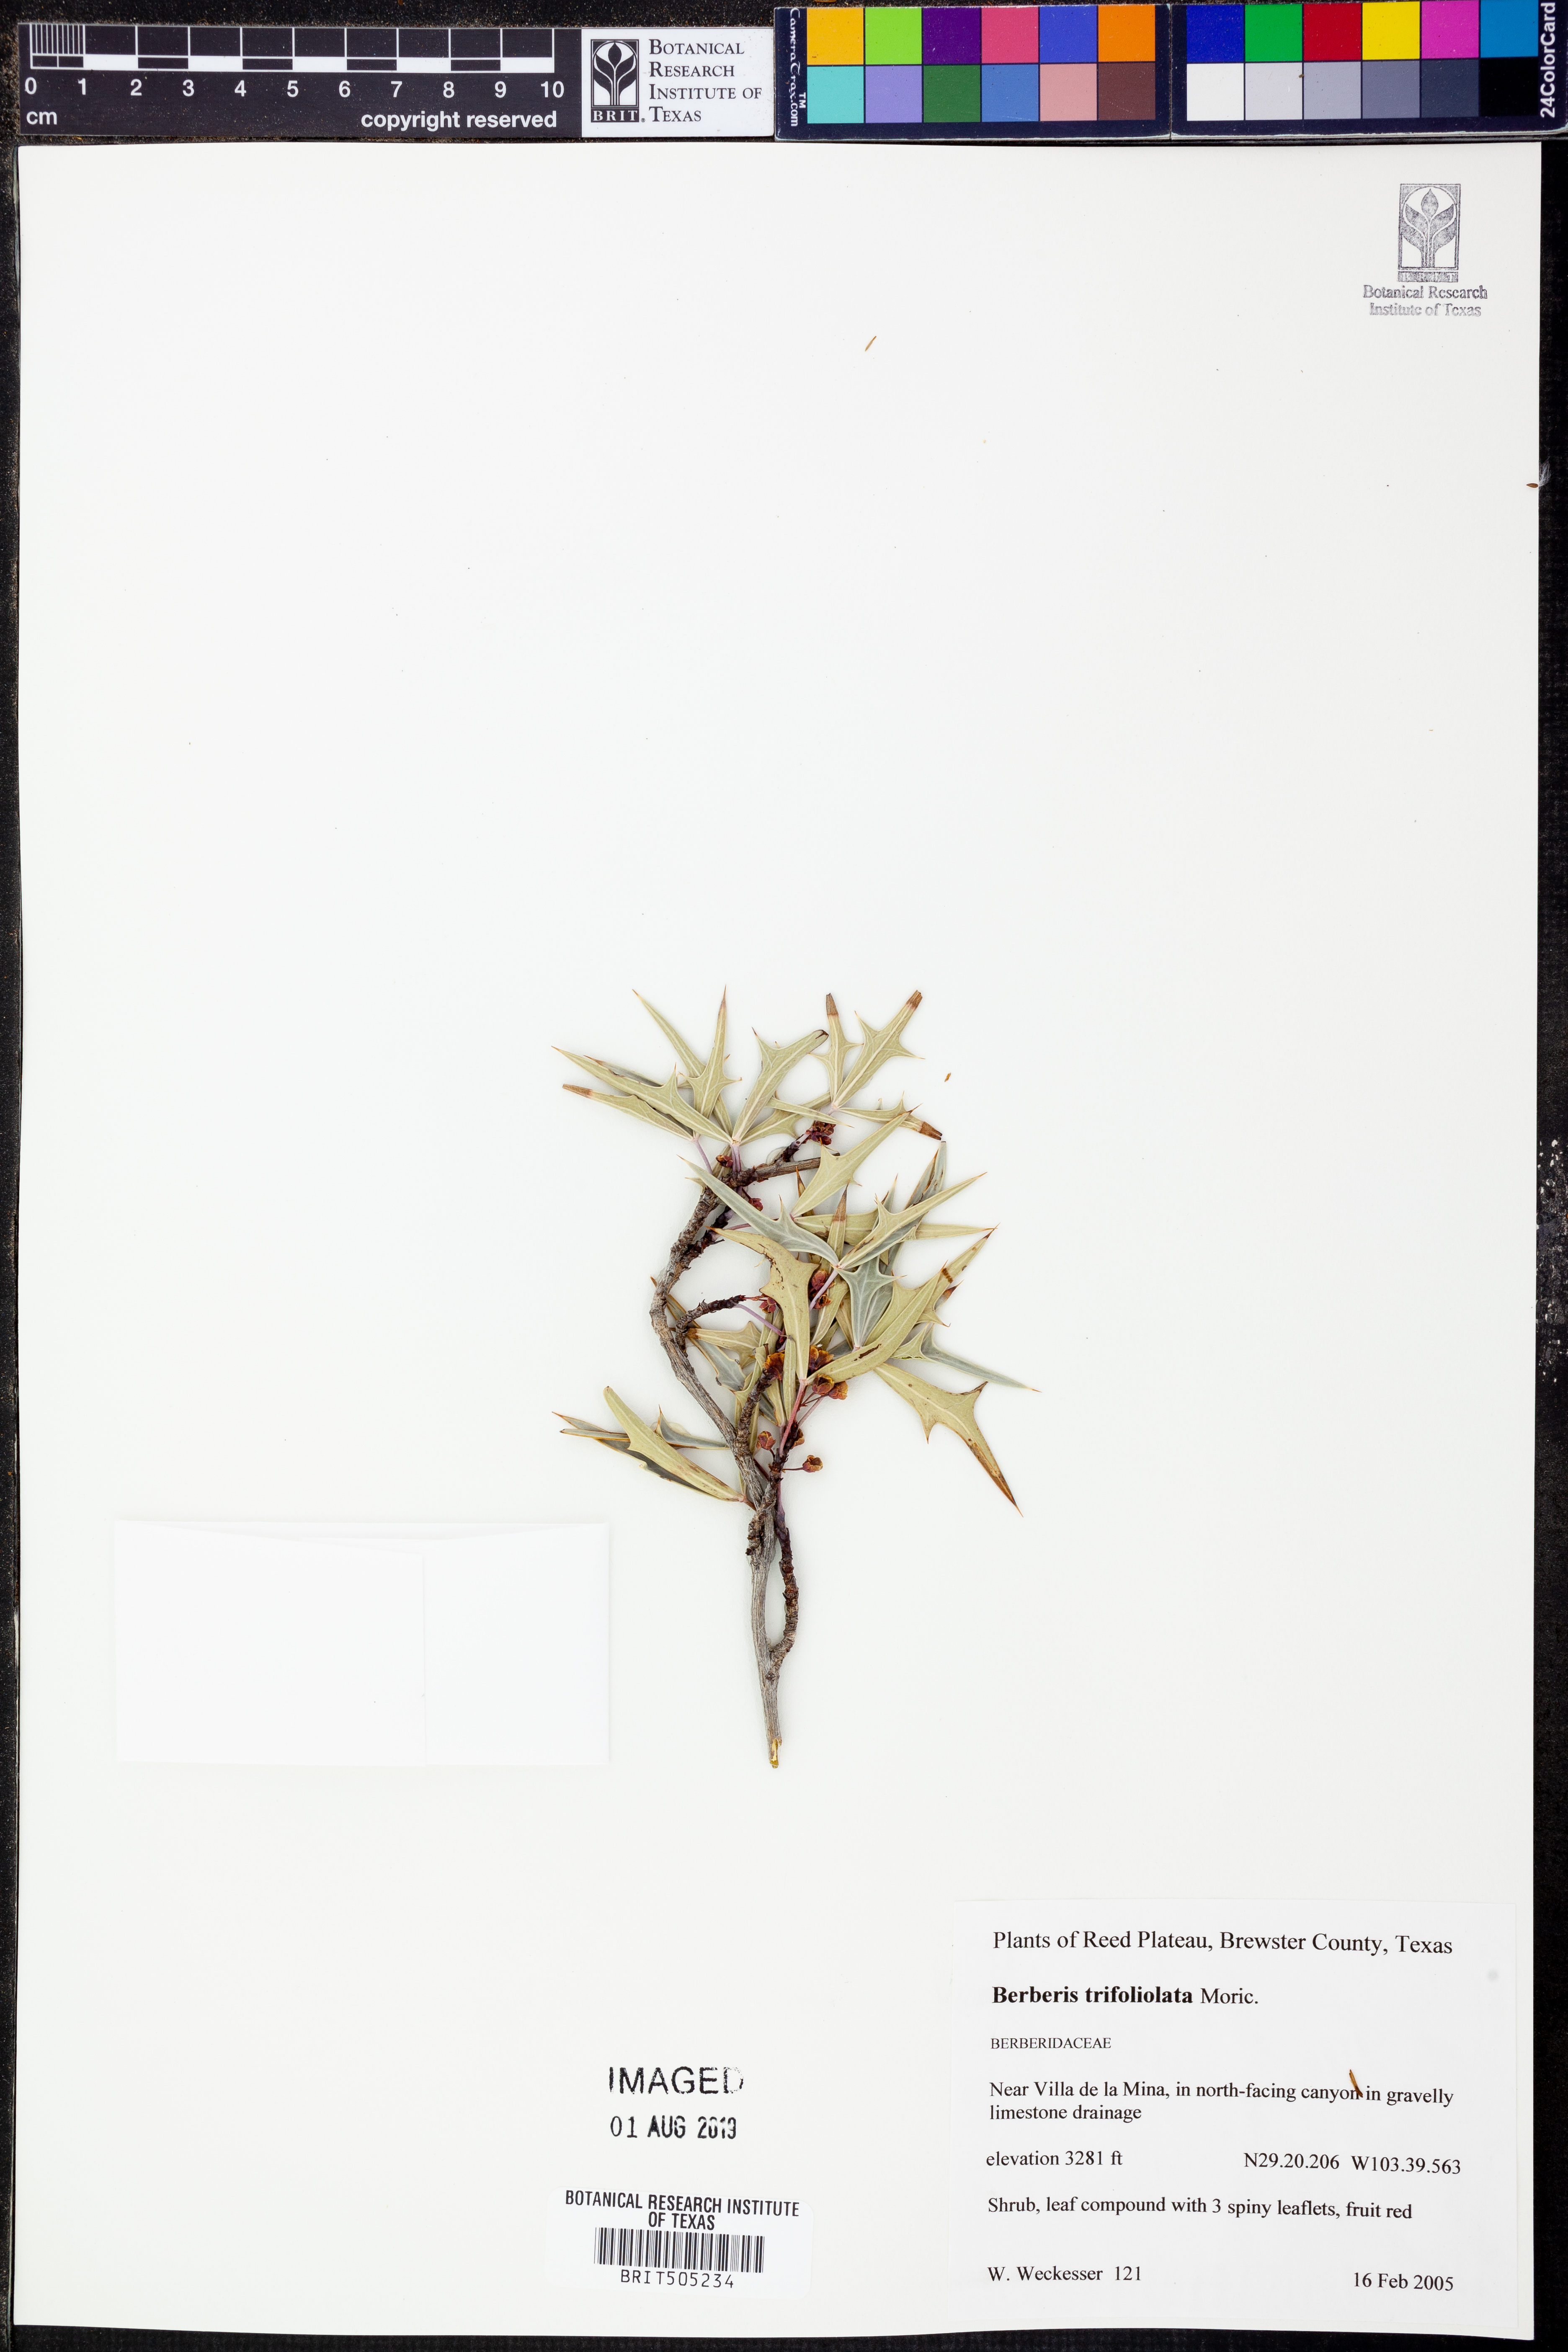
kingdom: Plantae
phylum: Tracheophyta
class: Magnoliopsida
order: Ranunculales
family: Berberidaceae
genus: Alloberberis
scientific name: Alloberberis trifoliolata
